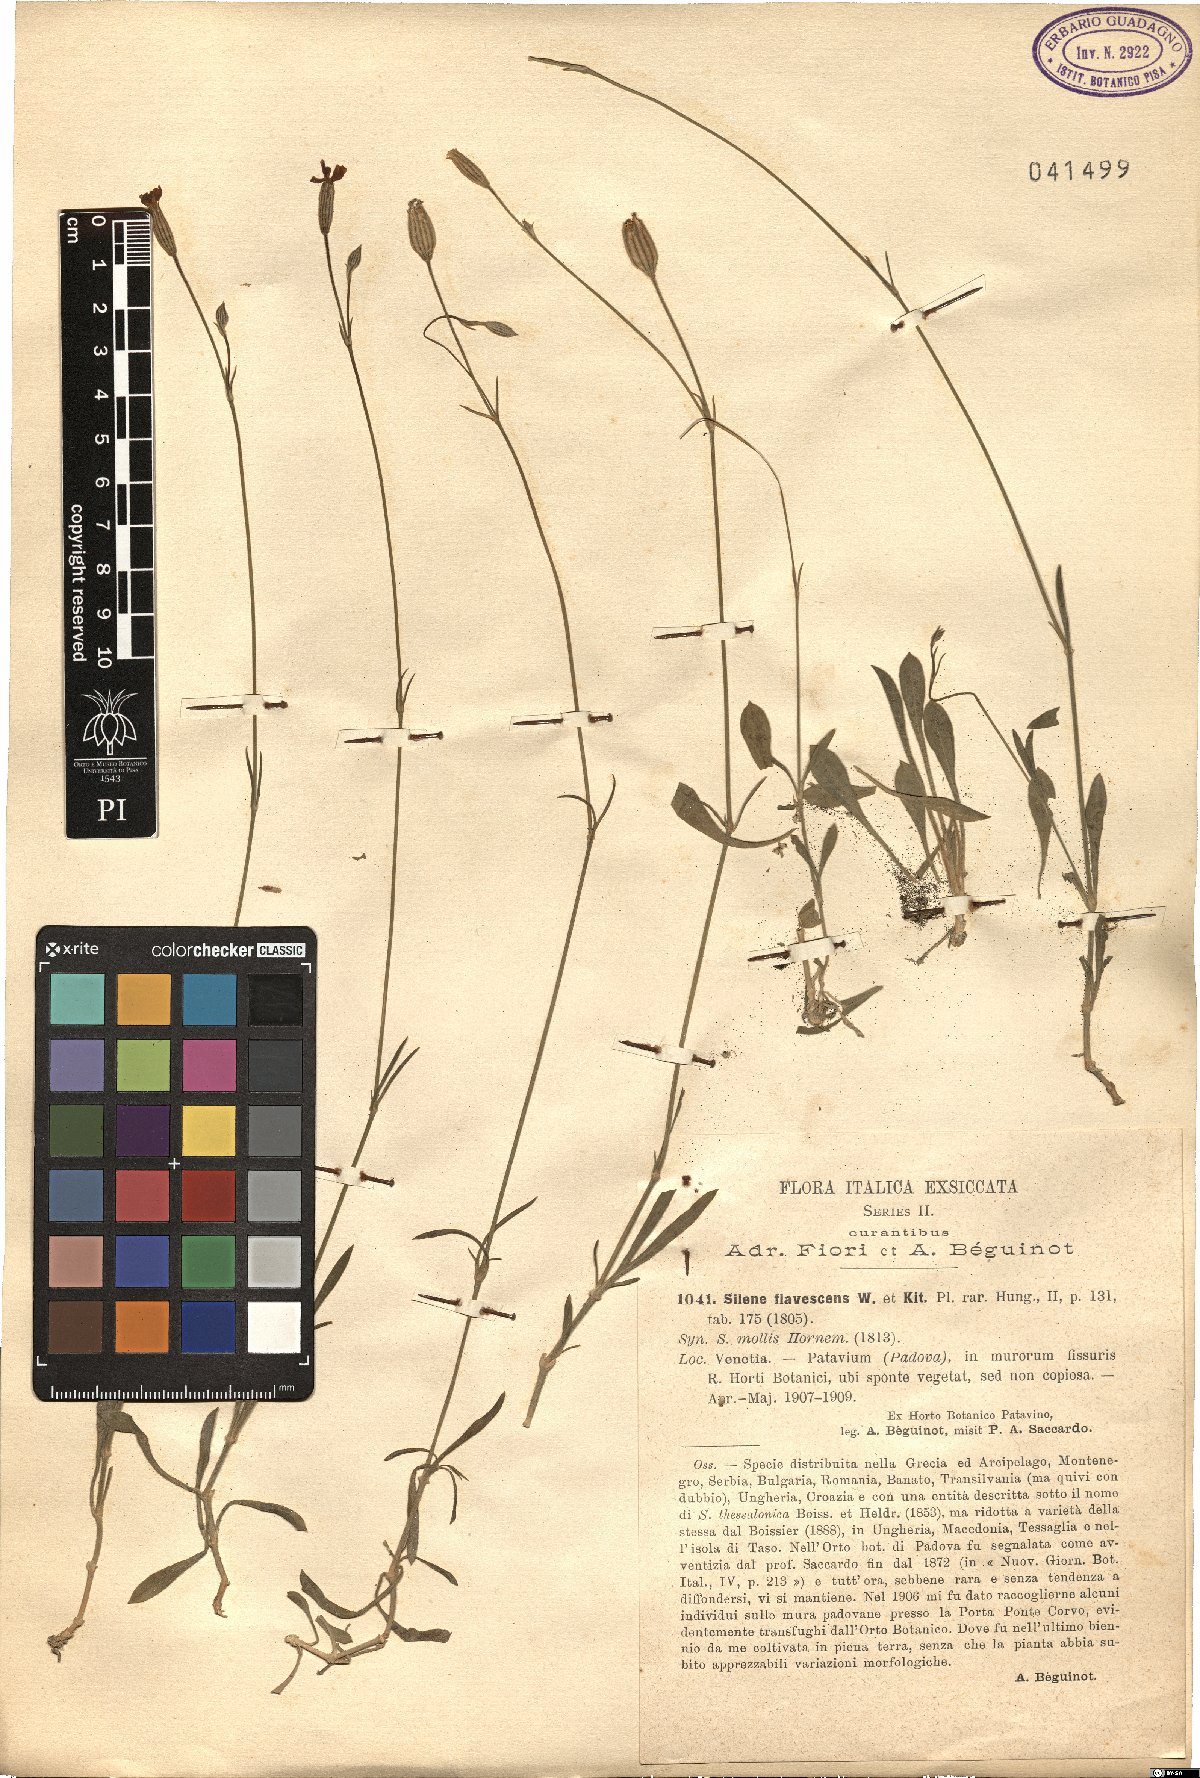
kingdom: Plantae
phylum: Tracheophyta
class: Magnoliopsida
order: Caryophyllales
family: Caryophyllaceae
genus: Silene
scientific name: Silene flavescens
